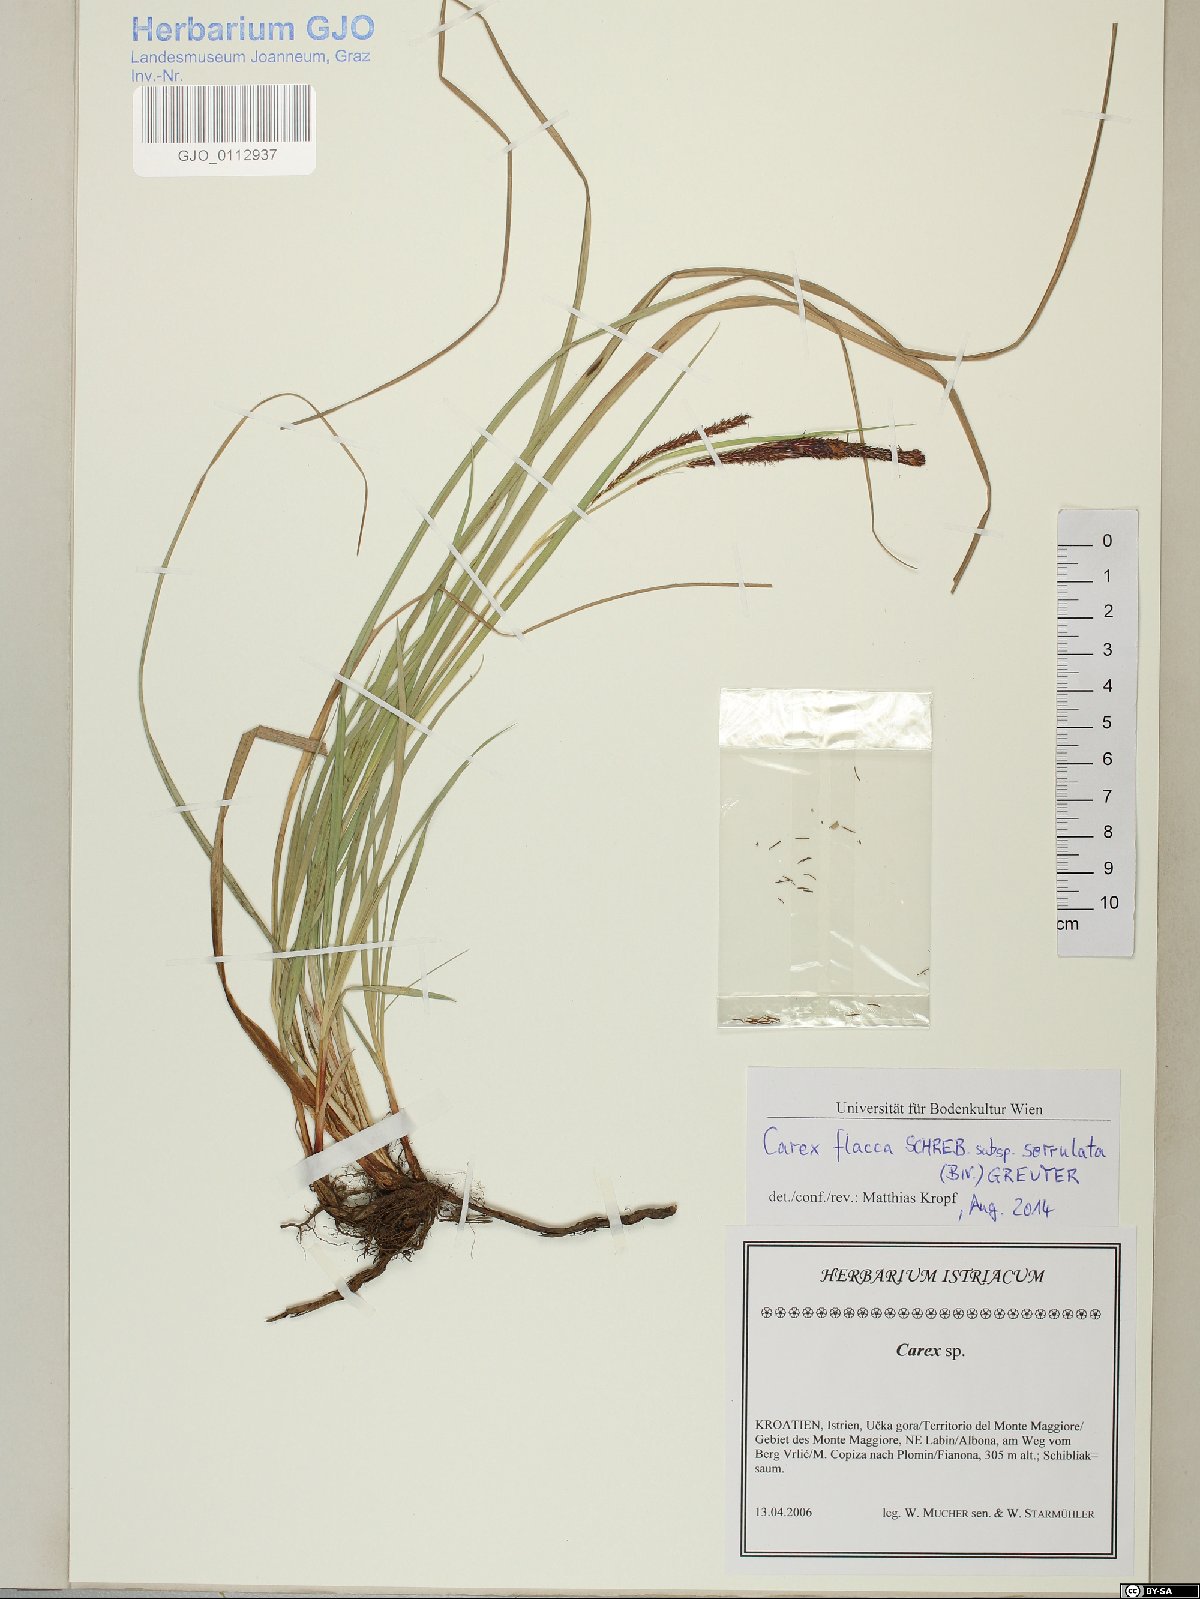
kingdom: Plantae
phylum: Tracheophyta
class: Liliopsida
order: Poales
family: Cyperaceae
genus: Carex
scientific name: Carex flacca
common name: Glaucous sedge
